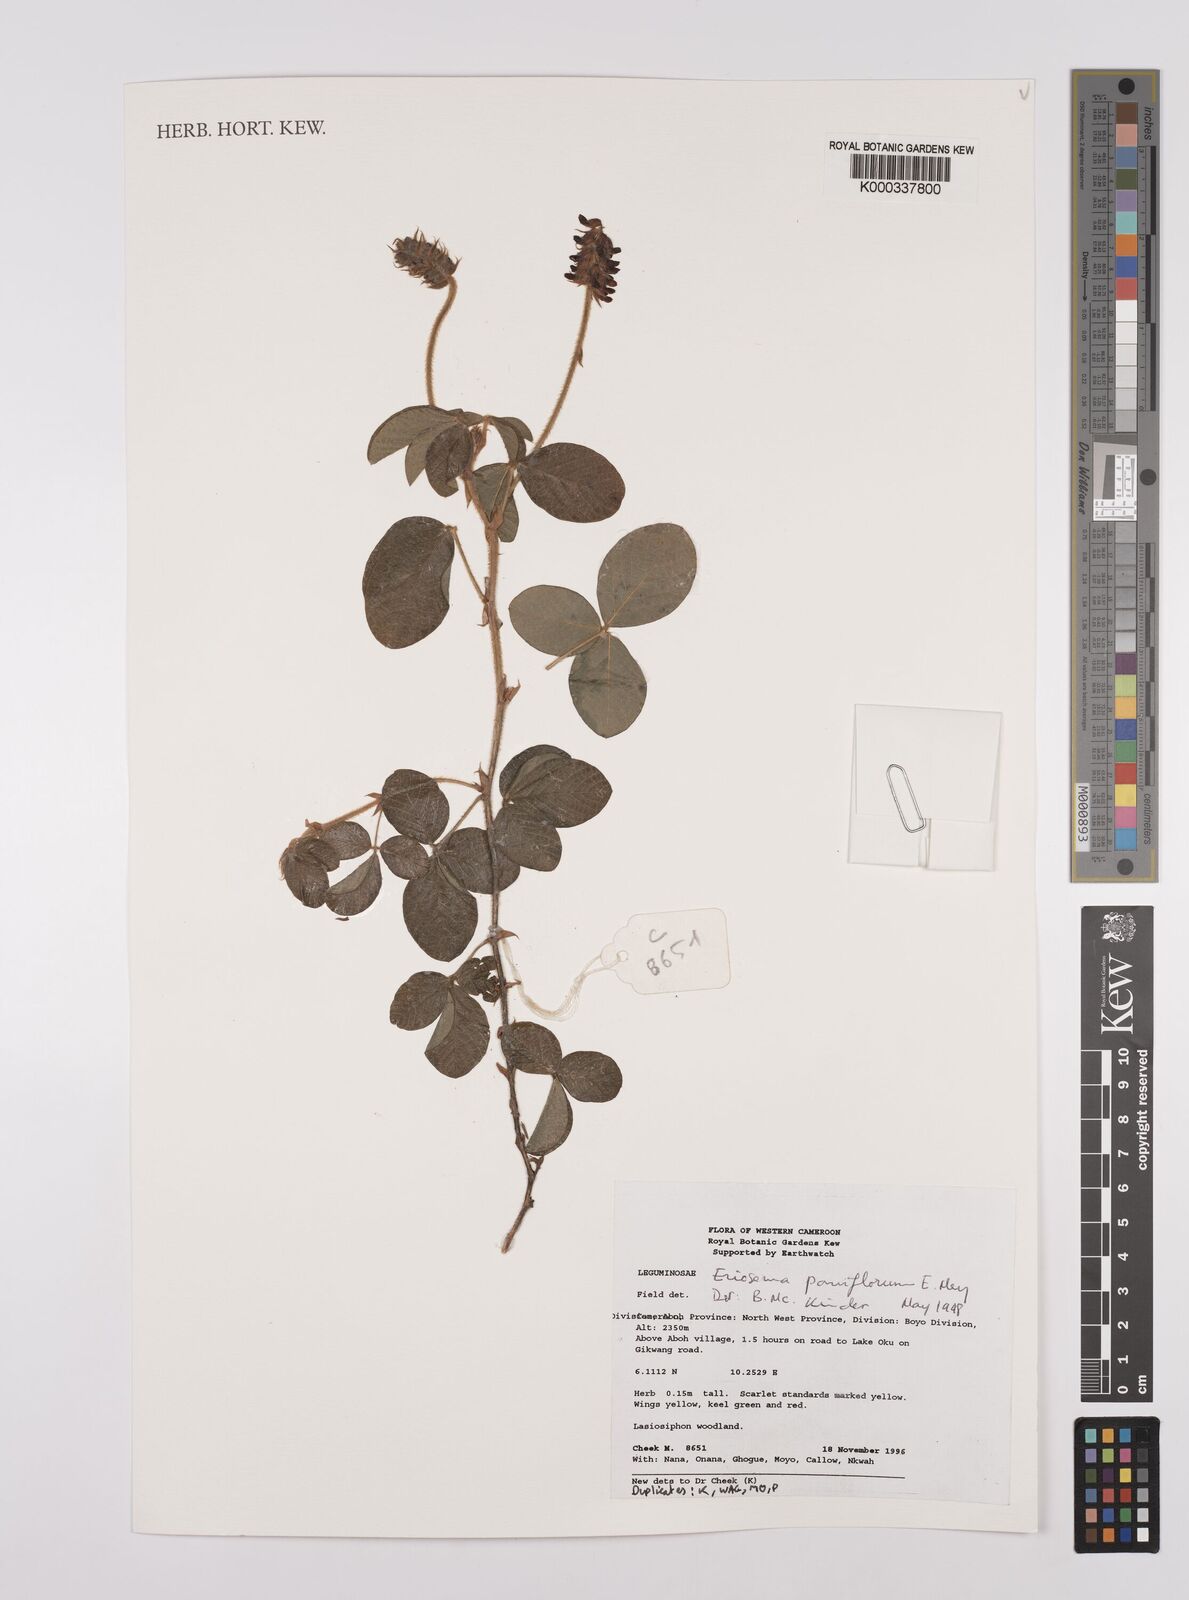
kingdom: Plantae
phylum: Tracheophyta
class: Magnoliopsida
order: Fabales
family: Fabaceae
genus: Eriosema
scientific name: Eriosema parviflorum
